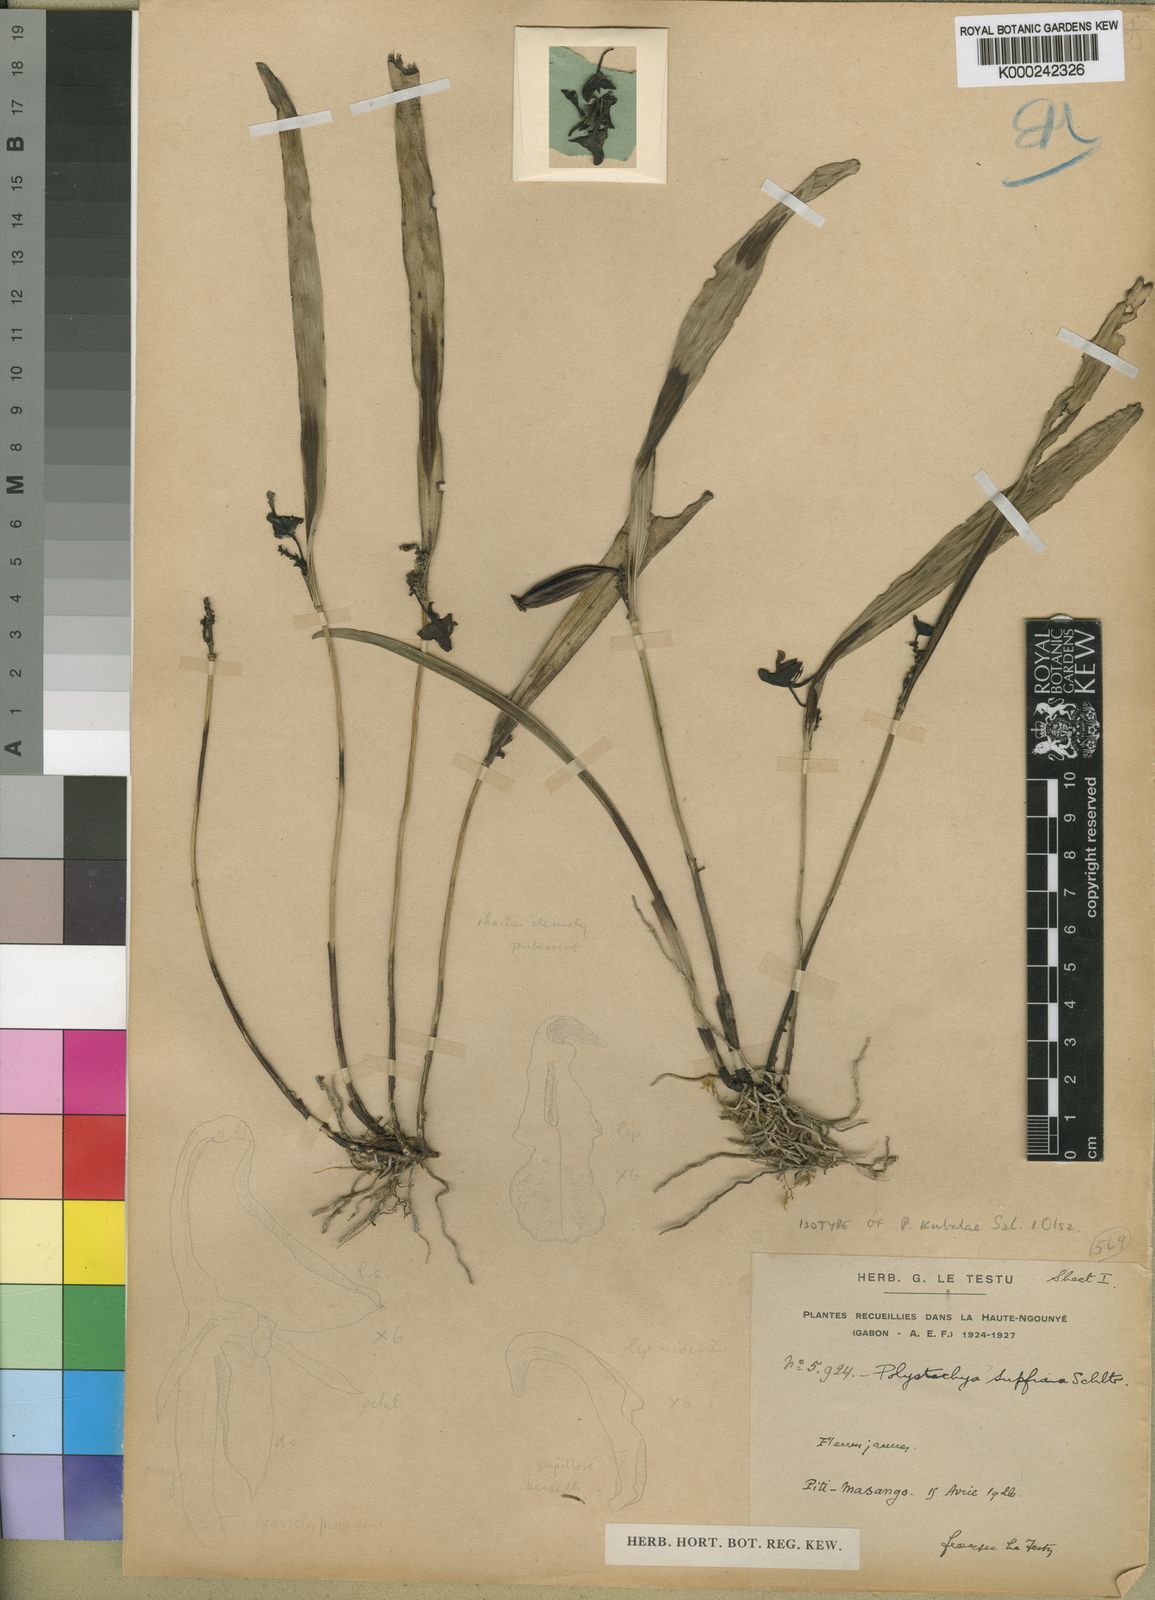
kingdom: Plantae
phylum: Tracheophyta
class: Liliopsida
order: Asparagales
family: Orchidaceae
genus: Polystachya
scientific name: Polystachya kubalae
